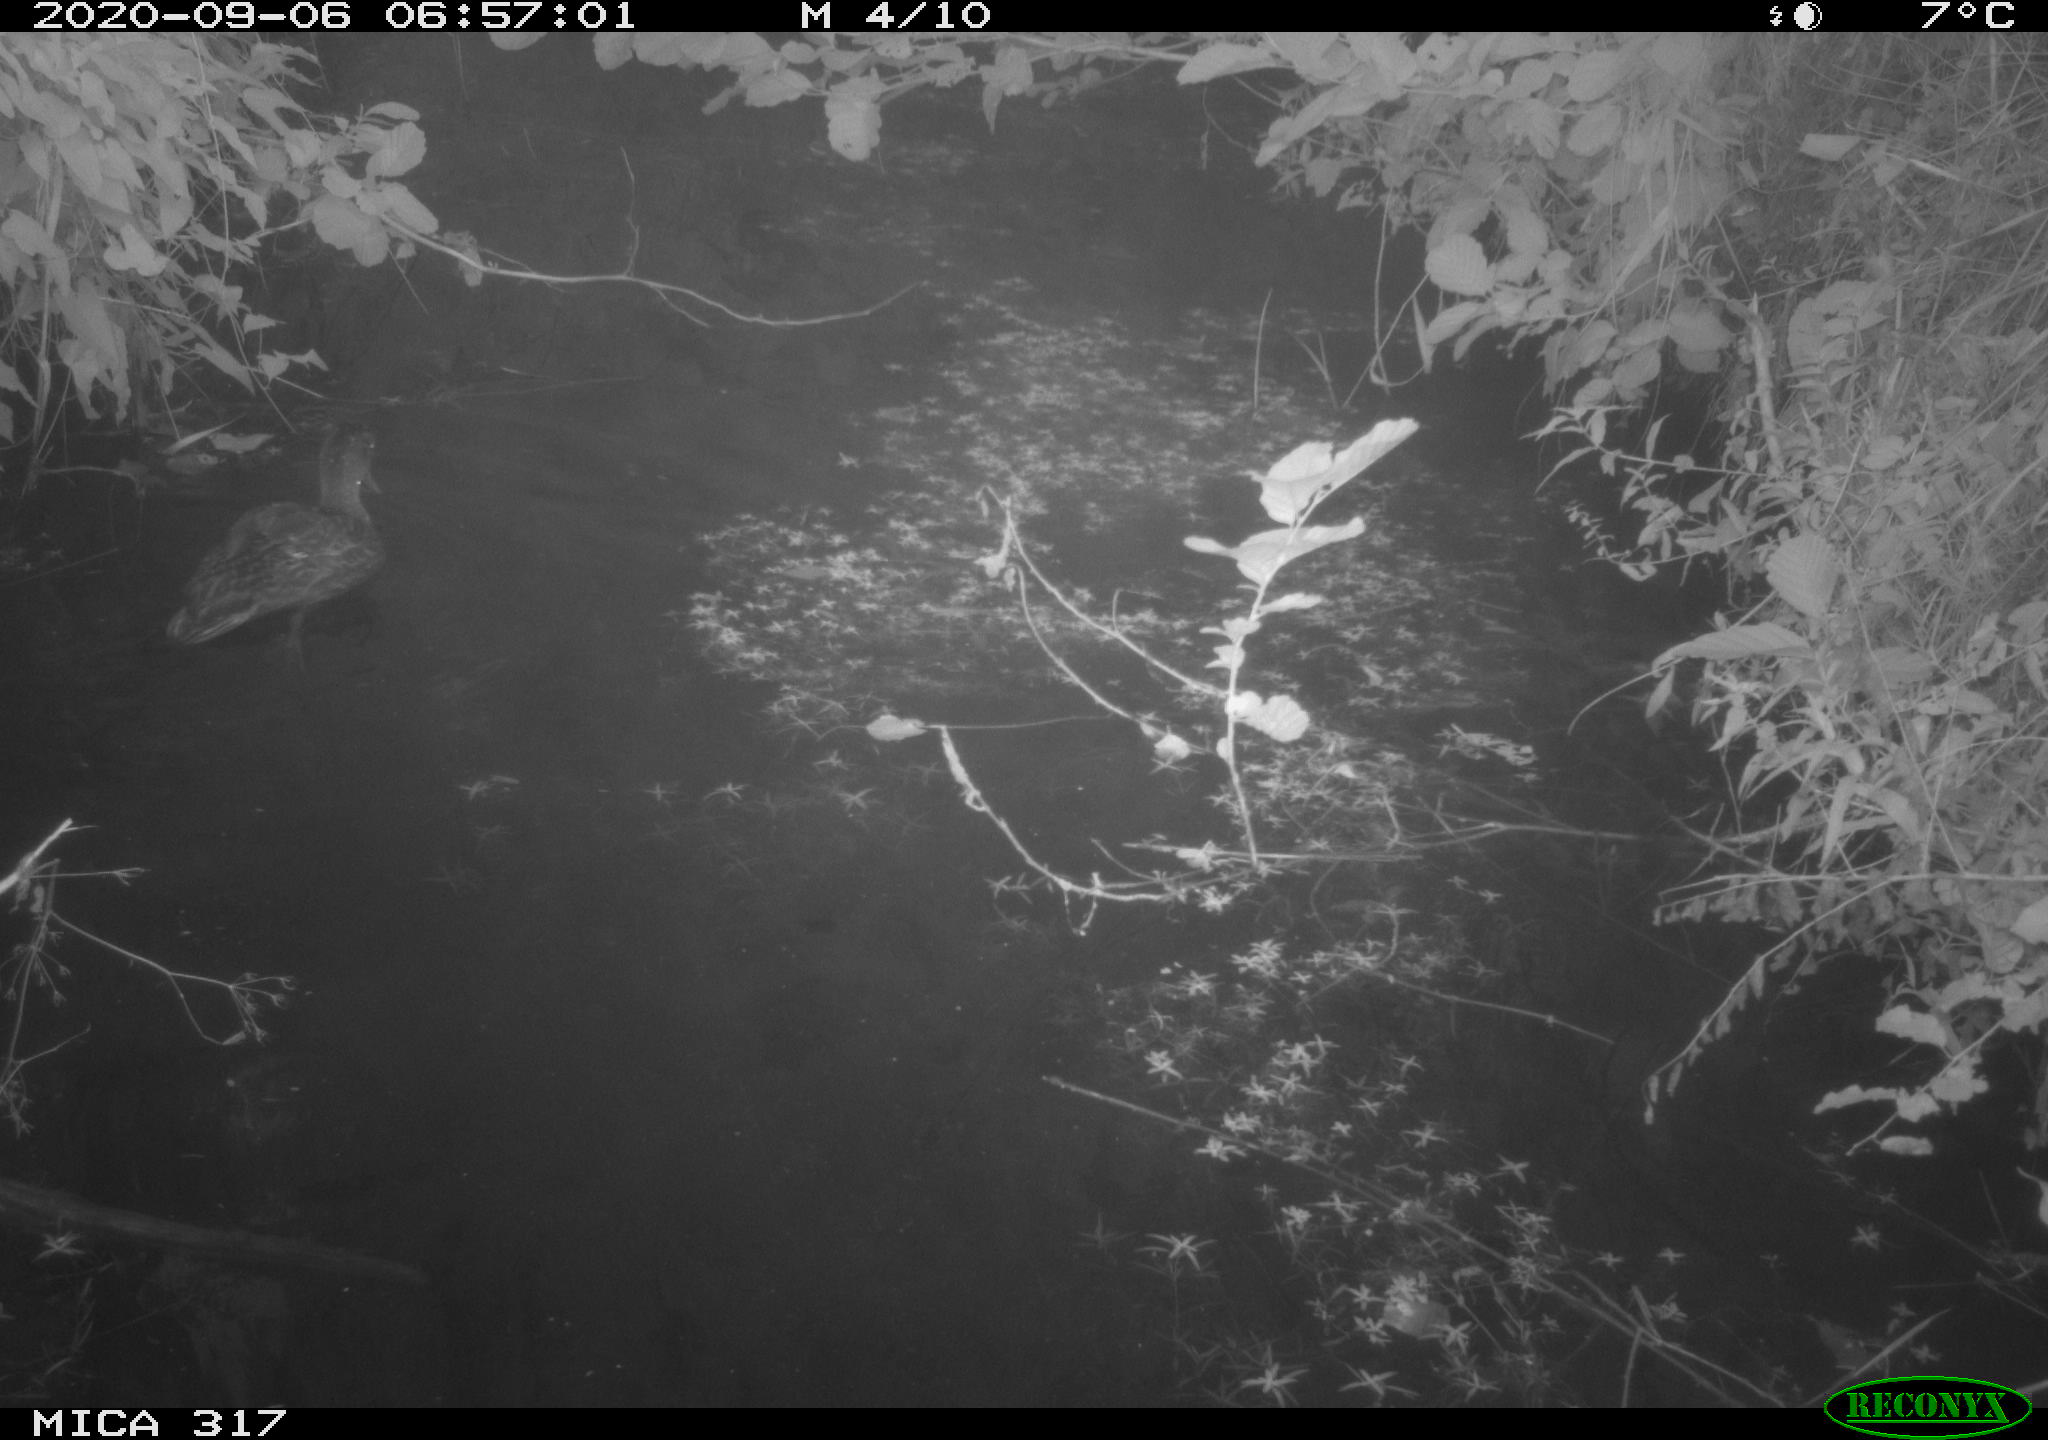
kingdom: Animalia
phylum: Chordata
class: Aves
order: Anseriformes
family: Anatidae
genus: Anas
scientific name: Anas platyrhynchos
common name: Mallard
